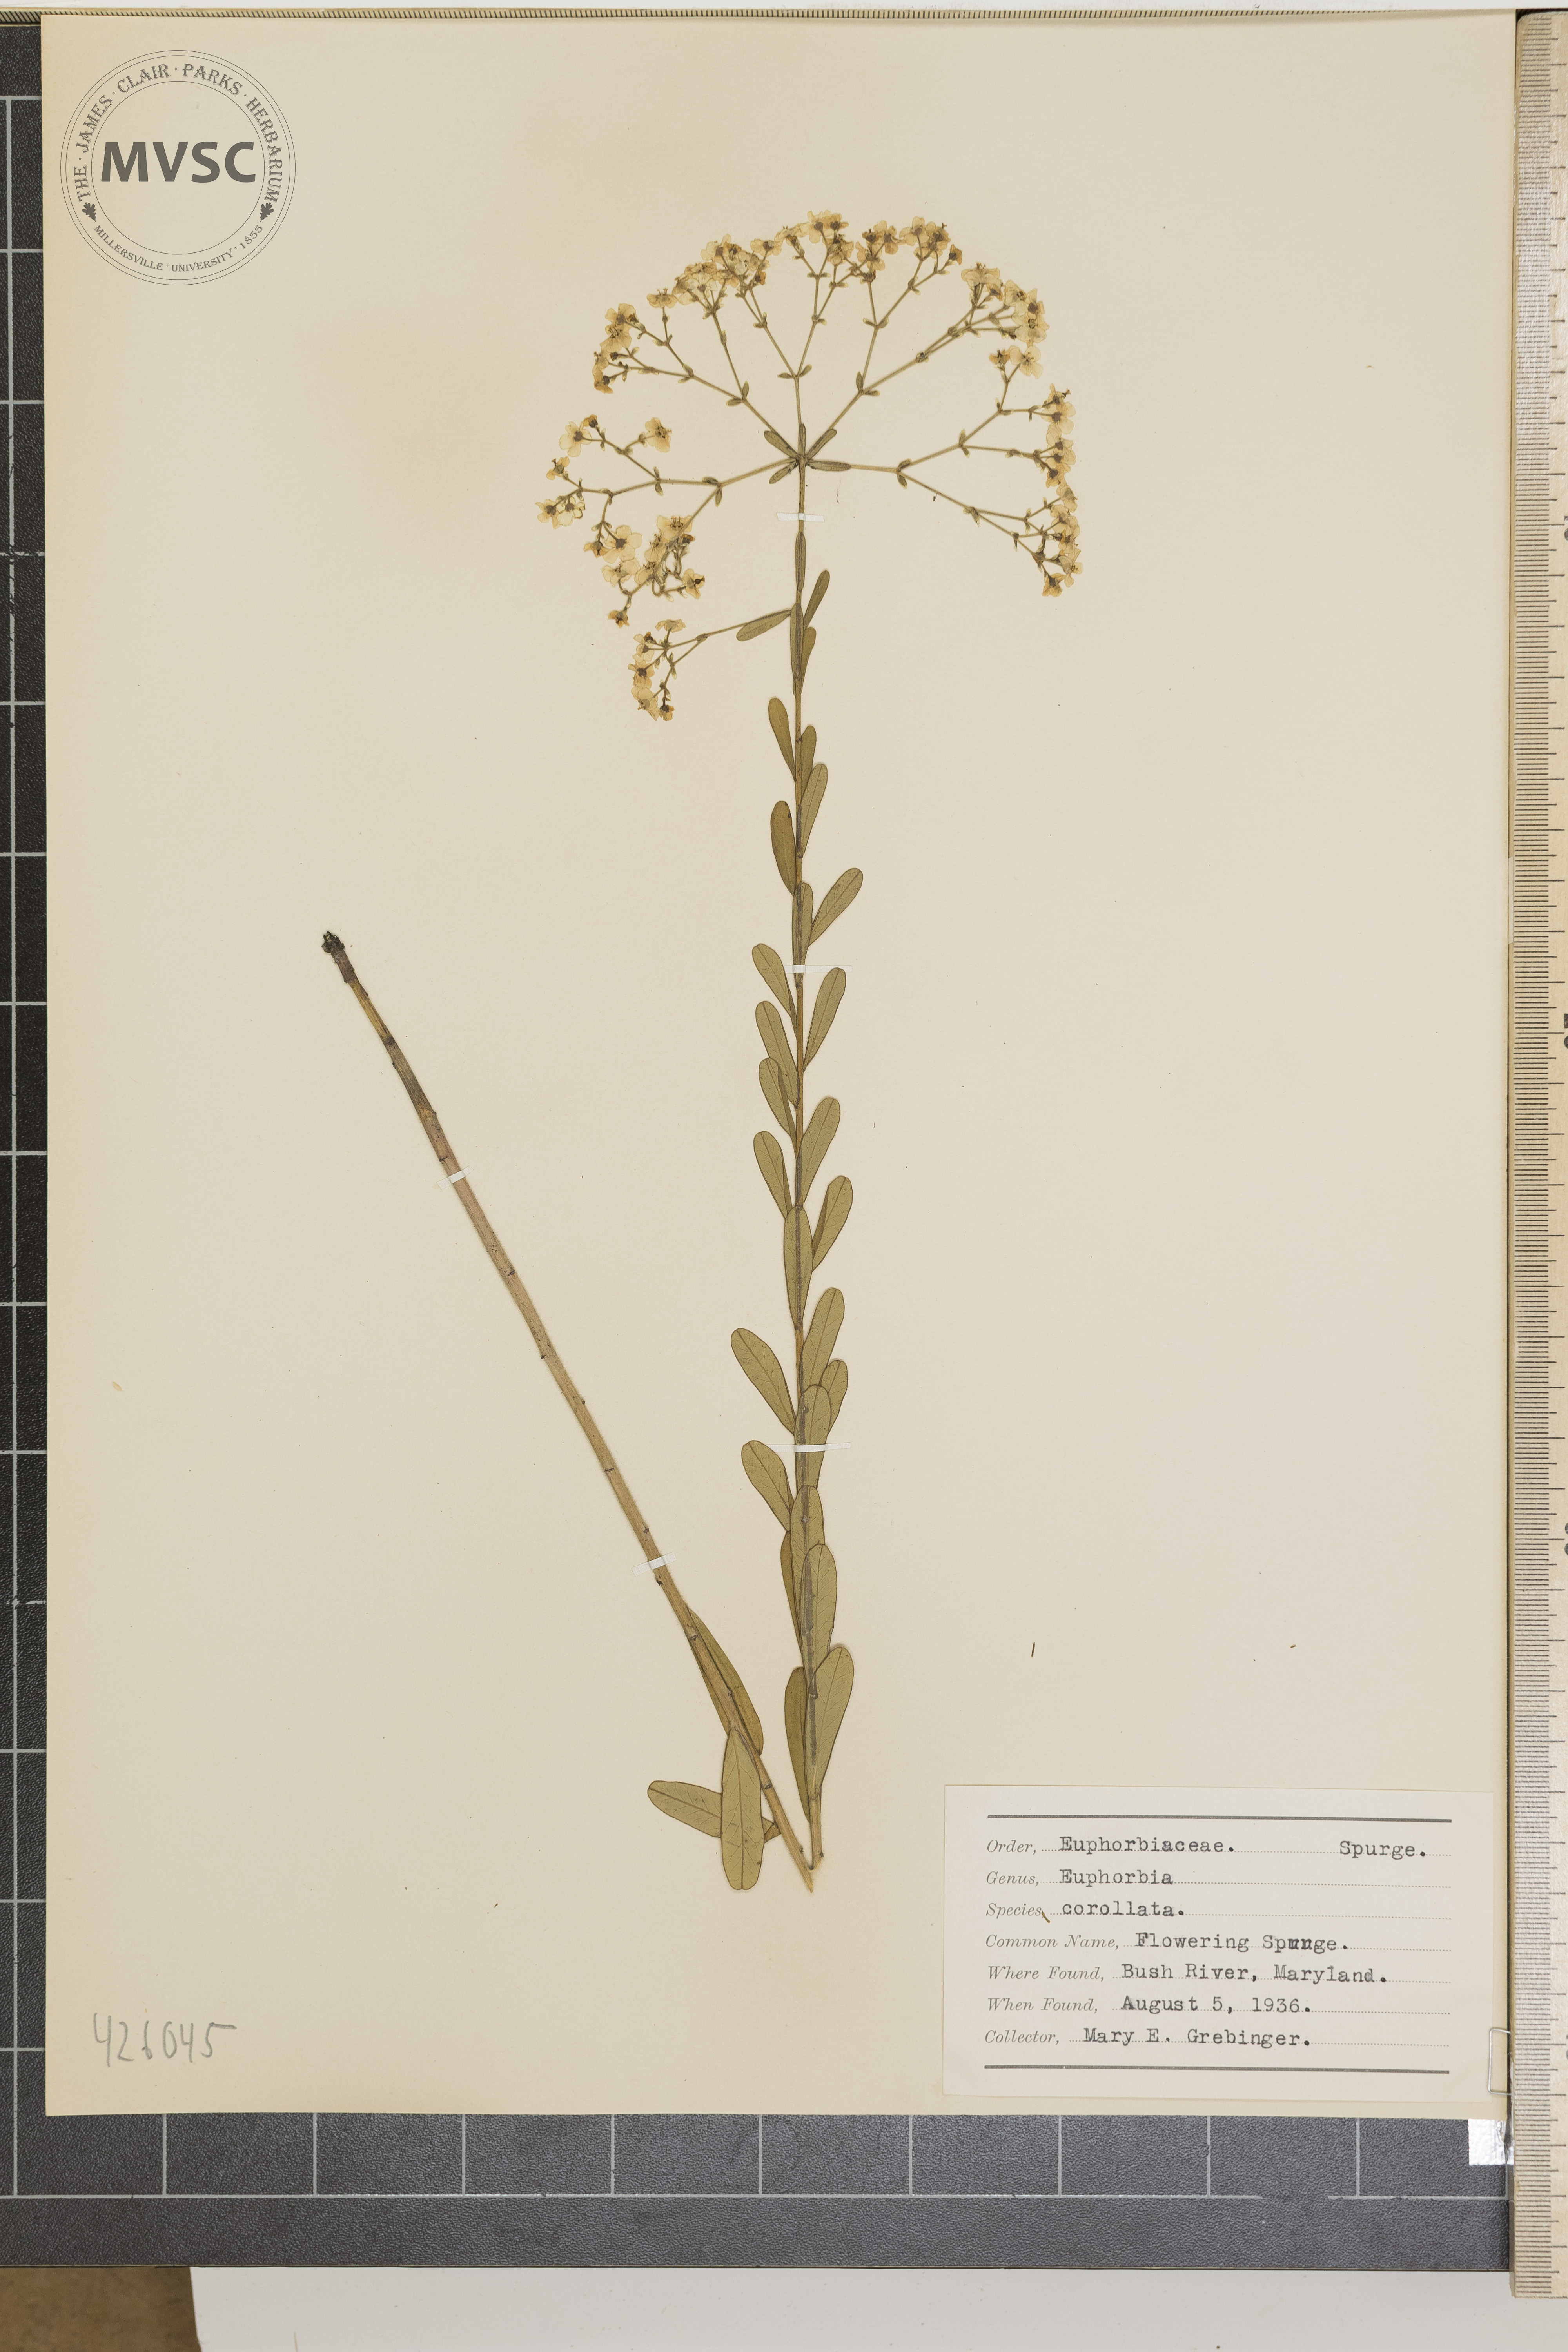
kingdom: Plantae
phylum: Tracheophyta
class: Magnoliopsida
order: Malpighiales
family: Euphorbiaceae
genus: Euphorbia
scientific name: Euphorbia corollata
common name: Flowering spurge
